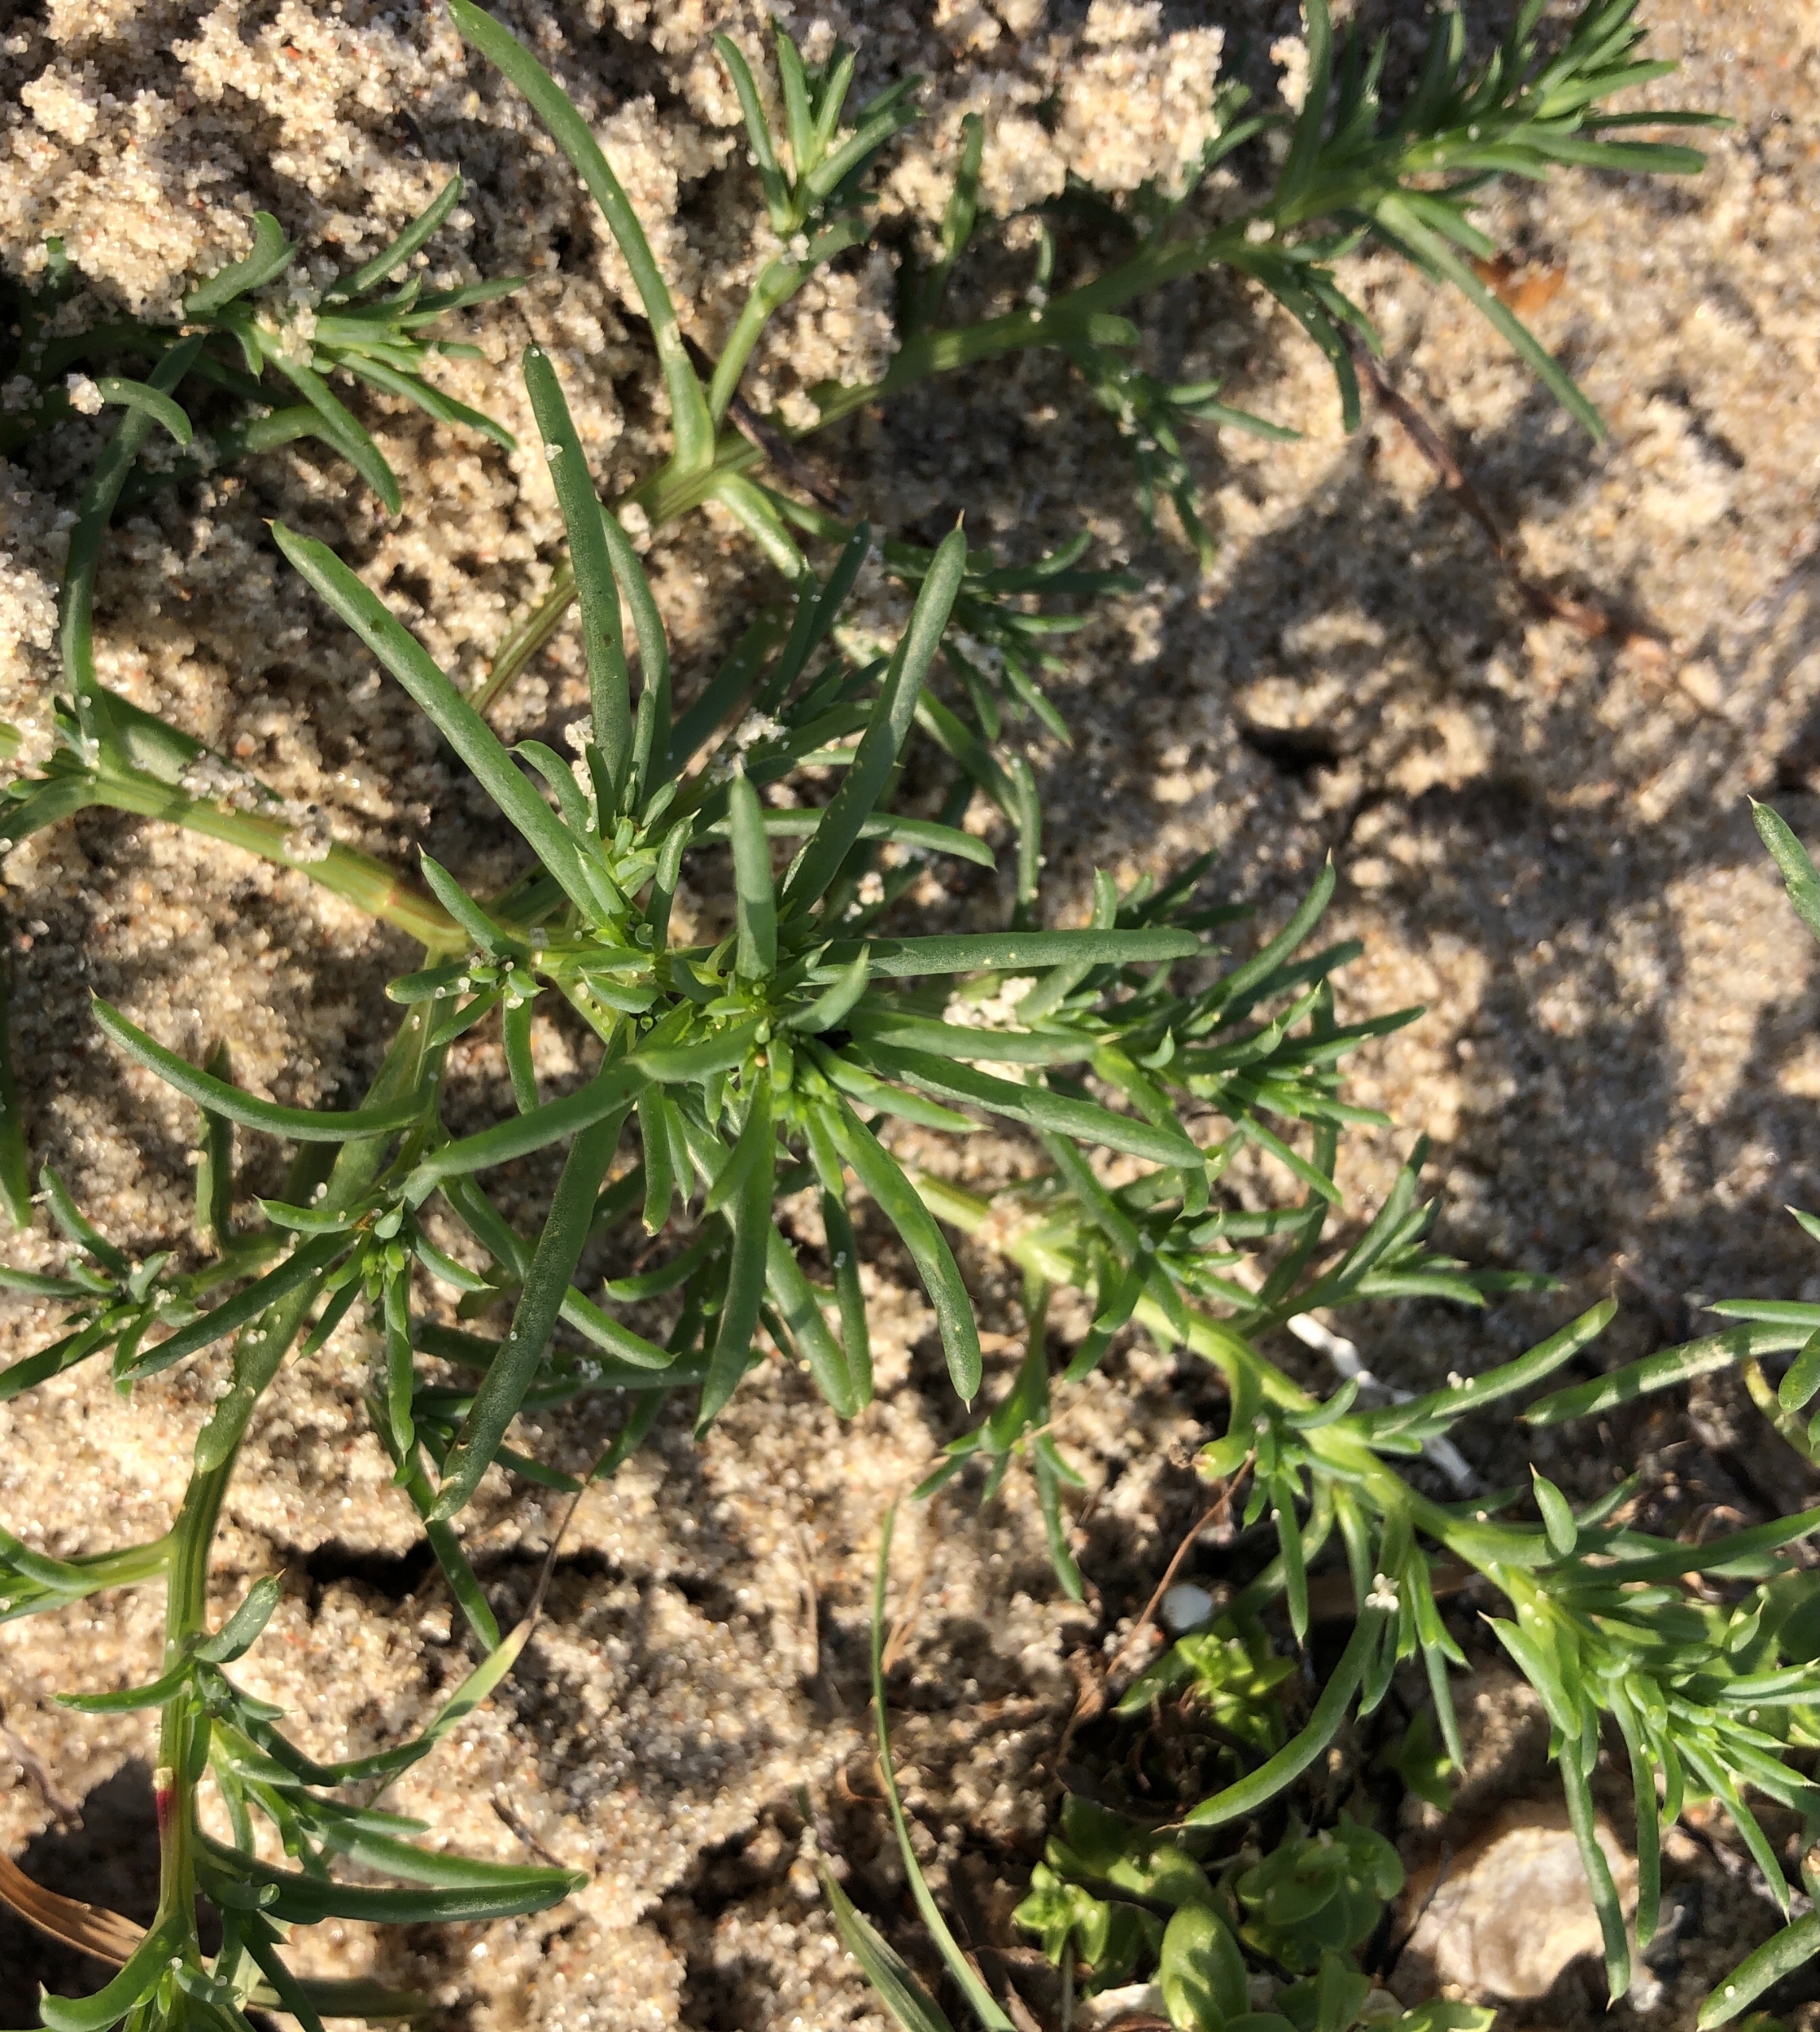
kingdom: Plantae
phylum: Tracheophyta
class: Magnoliopsida
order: Caryophyllales
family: Amaranthaceae
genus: Salsola
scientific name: Salsola kali
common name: Sodaurt
